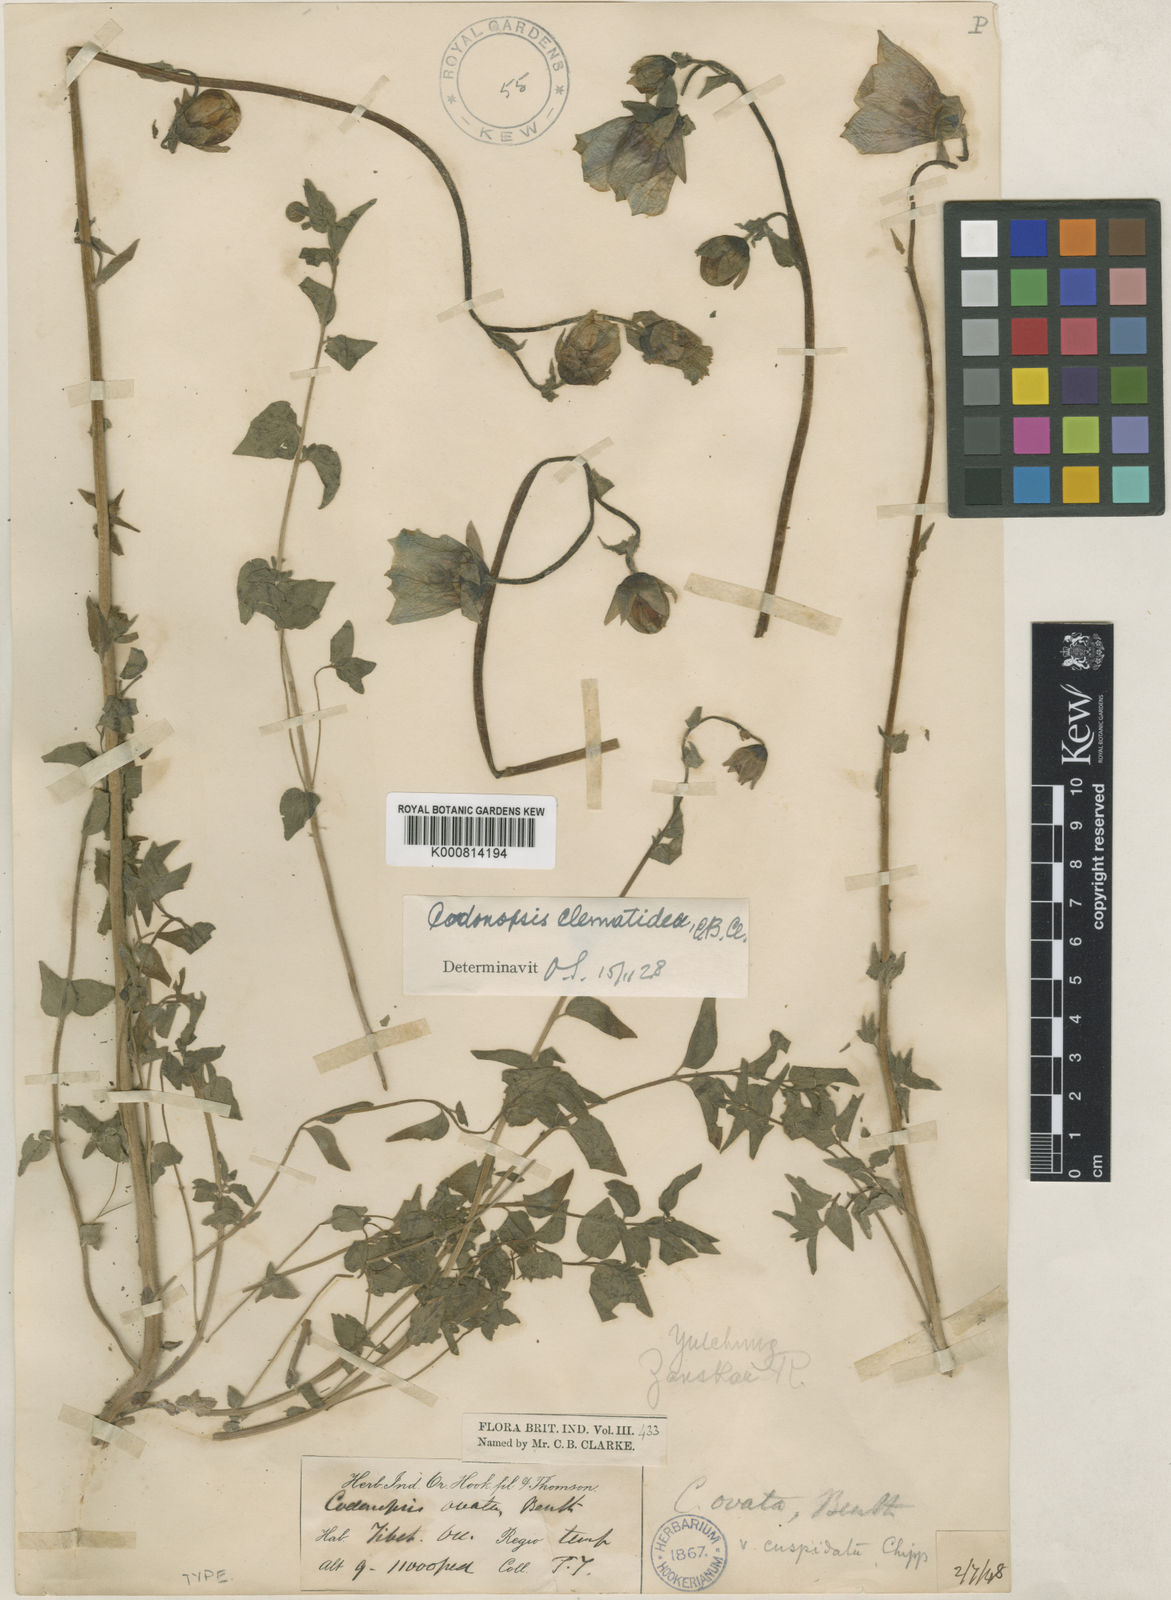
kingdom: Plantae
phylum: Tracheophyta
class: Magnoliopsida
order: Asterales
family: Campanulaceae
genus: Codonopsis
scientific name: Codonopsis clematidea
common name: Bonnet-bellflower
